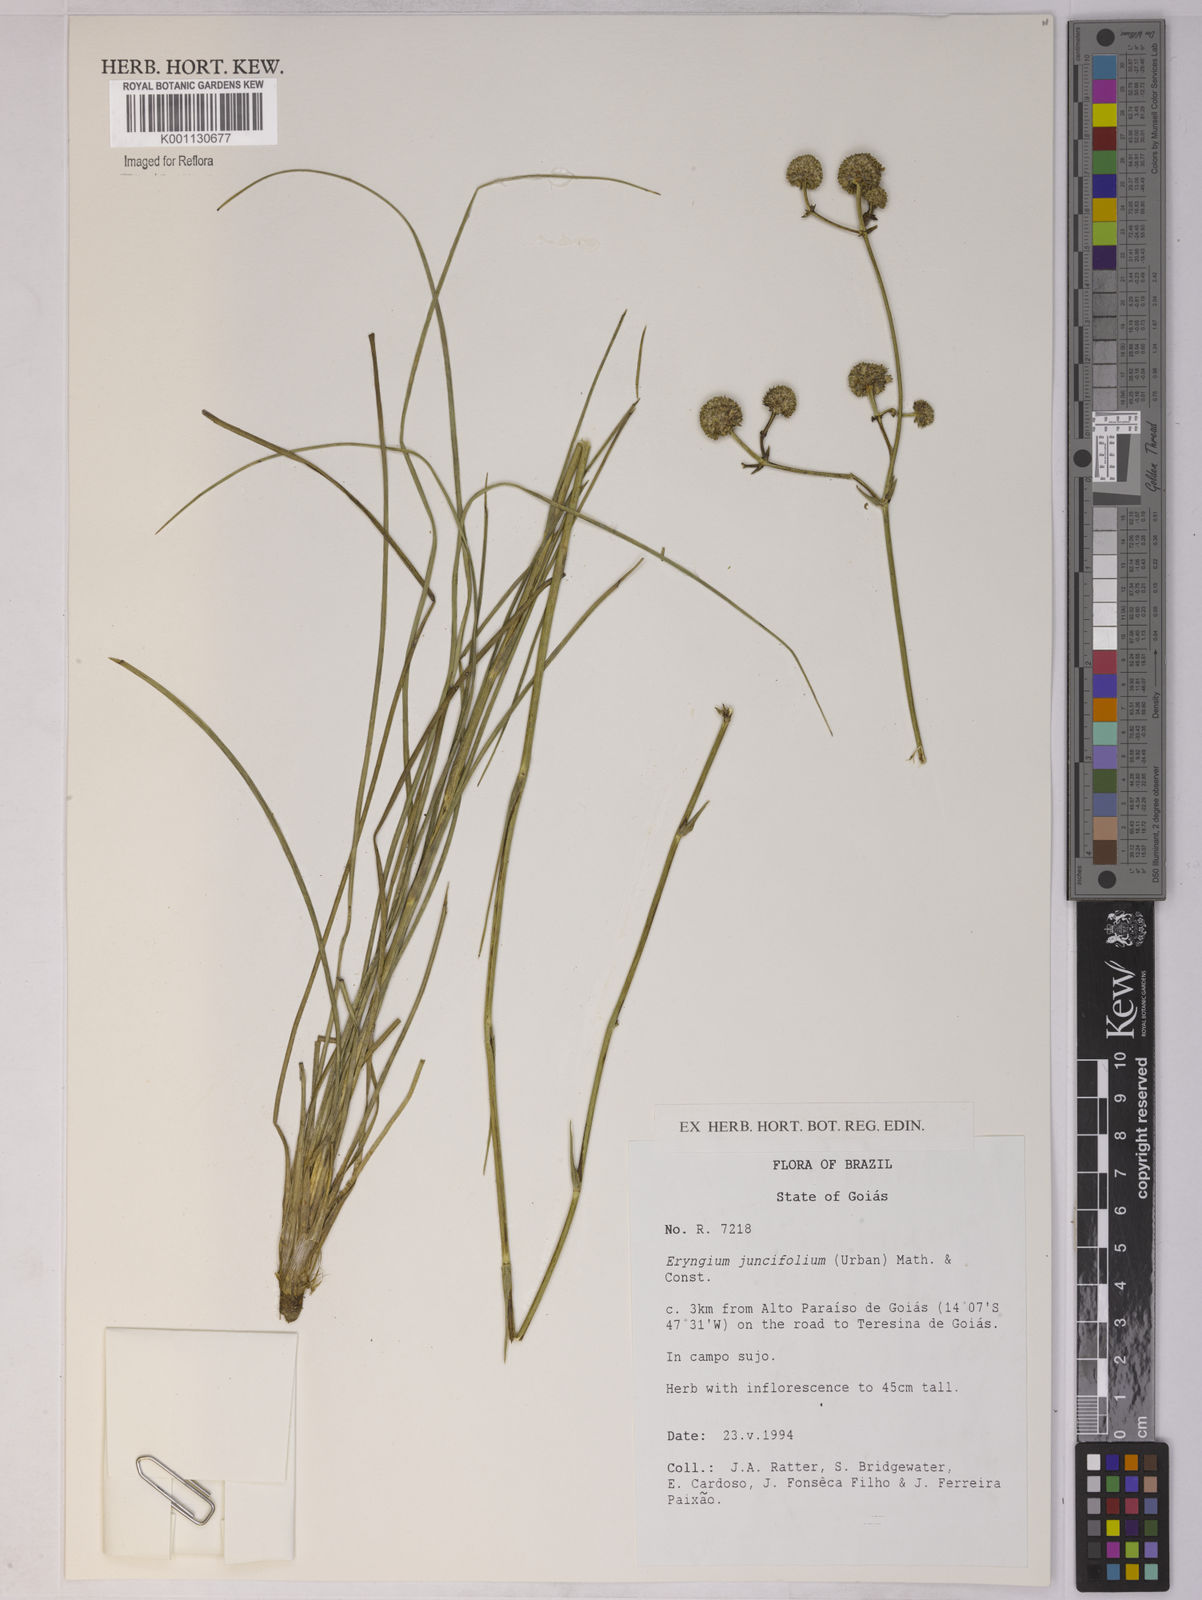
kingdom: Plantae
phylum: Tracheophyta
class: Magnoliopsida
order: Apiales
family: Apiaceae
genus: Eryngium
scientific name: Eryngium juncifolium
